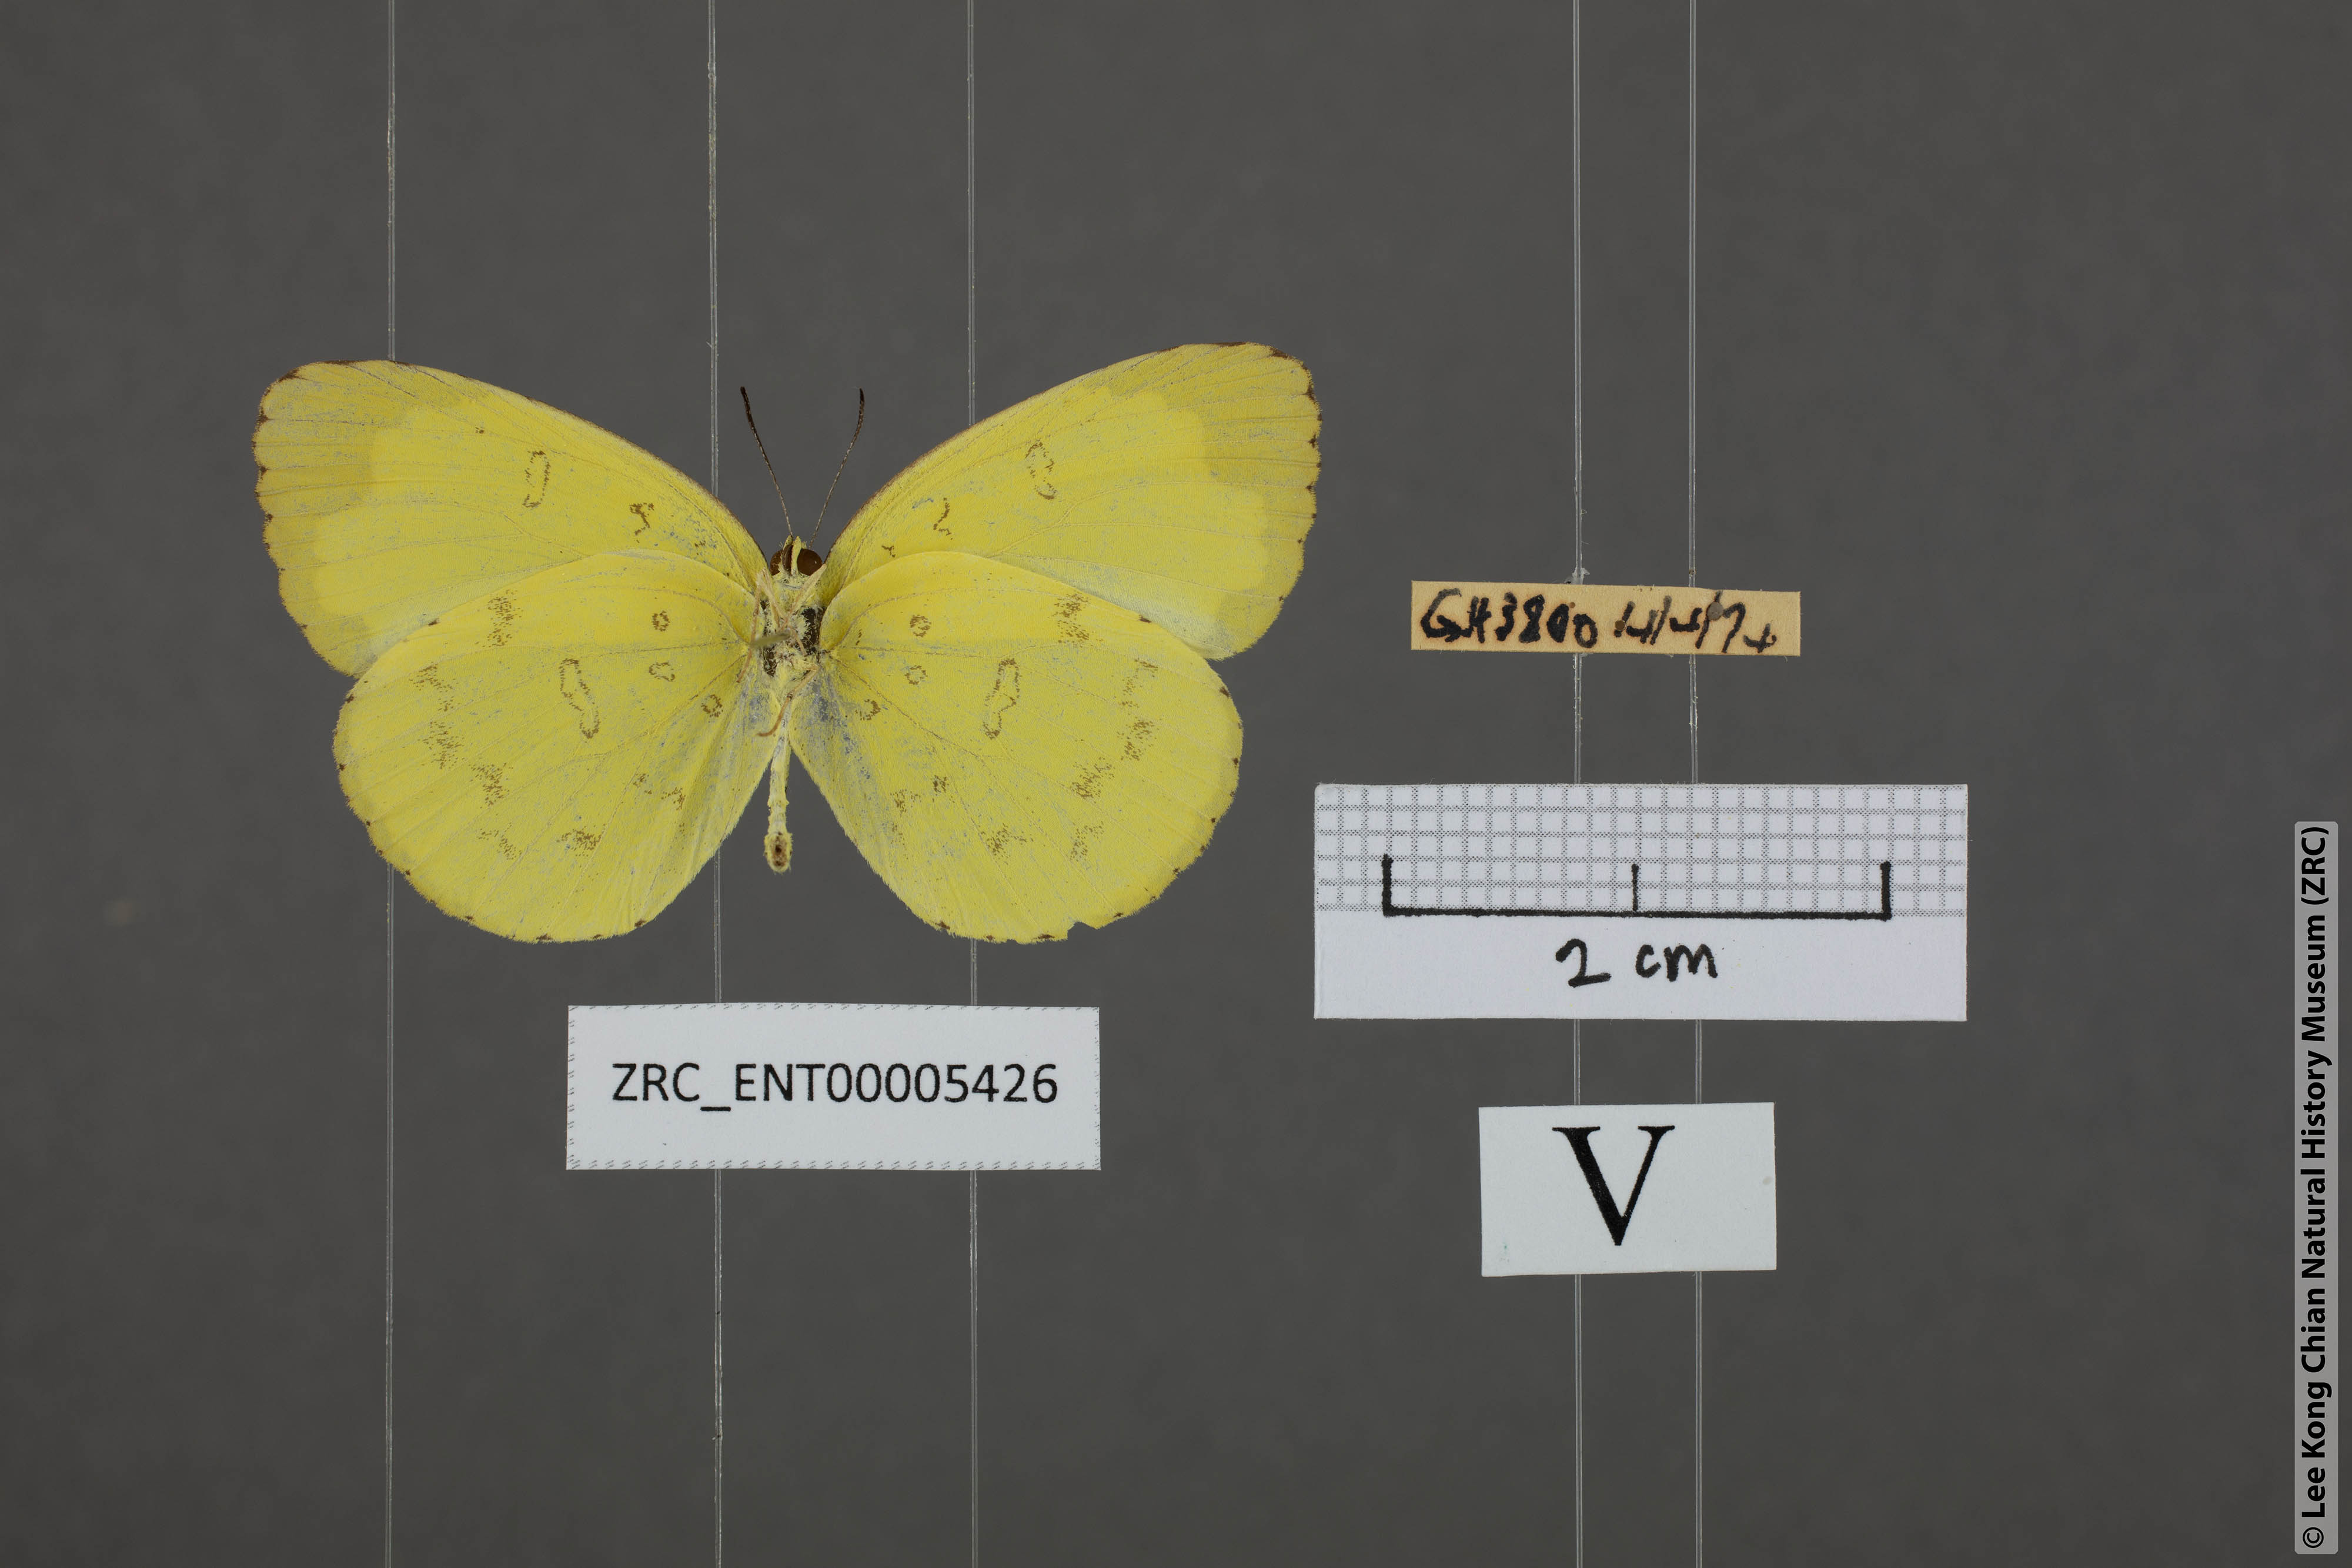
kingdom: Animalia
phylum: Arthropoda
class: Insecta
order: Lepidoptera
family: Pieridae
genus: Eurema
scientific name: Eurema blanda
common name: Three-spot grass yellow
